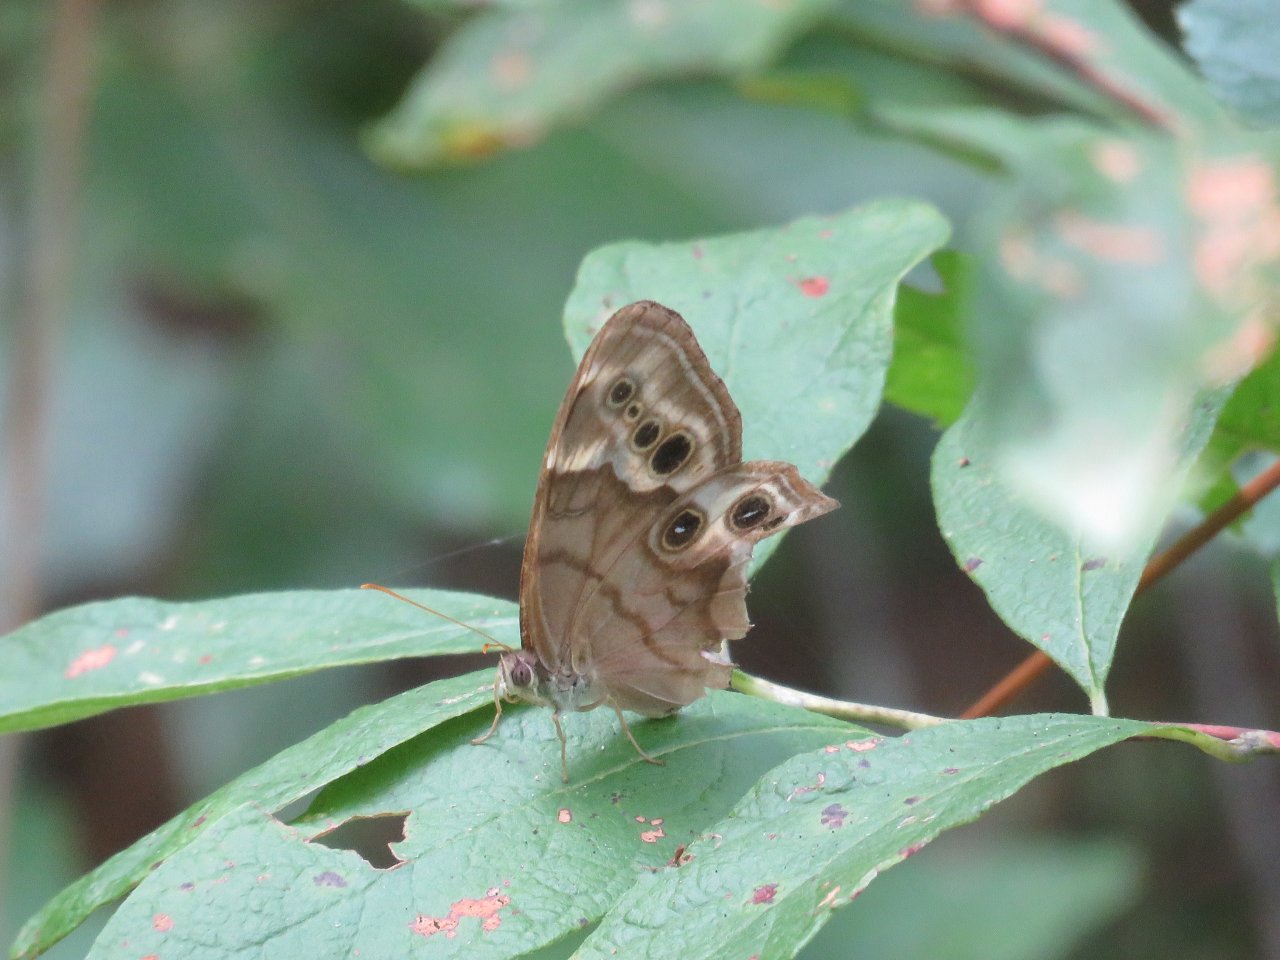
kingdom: Animalia
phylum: Arthropoda
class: Insecta
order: Lepidoptera
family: Nymphalidae
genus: Enodia
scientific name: Enodia portlandia
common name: Southern Pearly Eye
